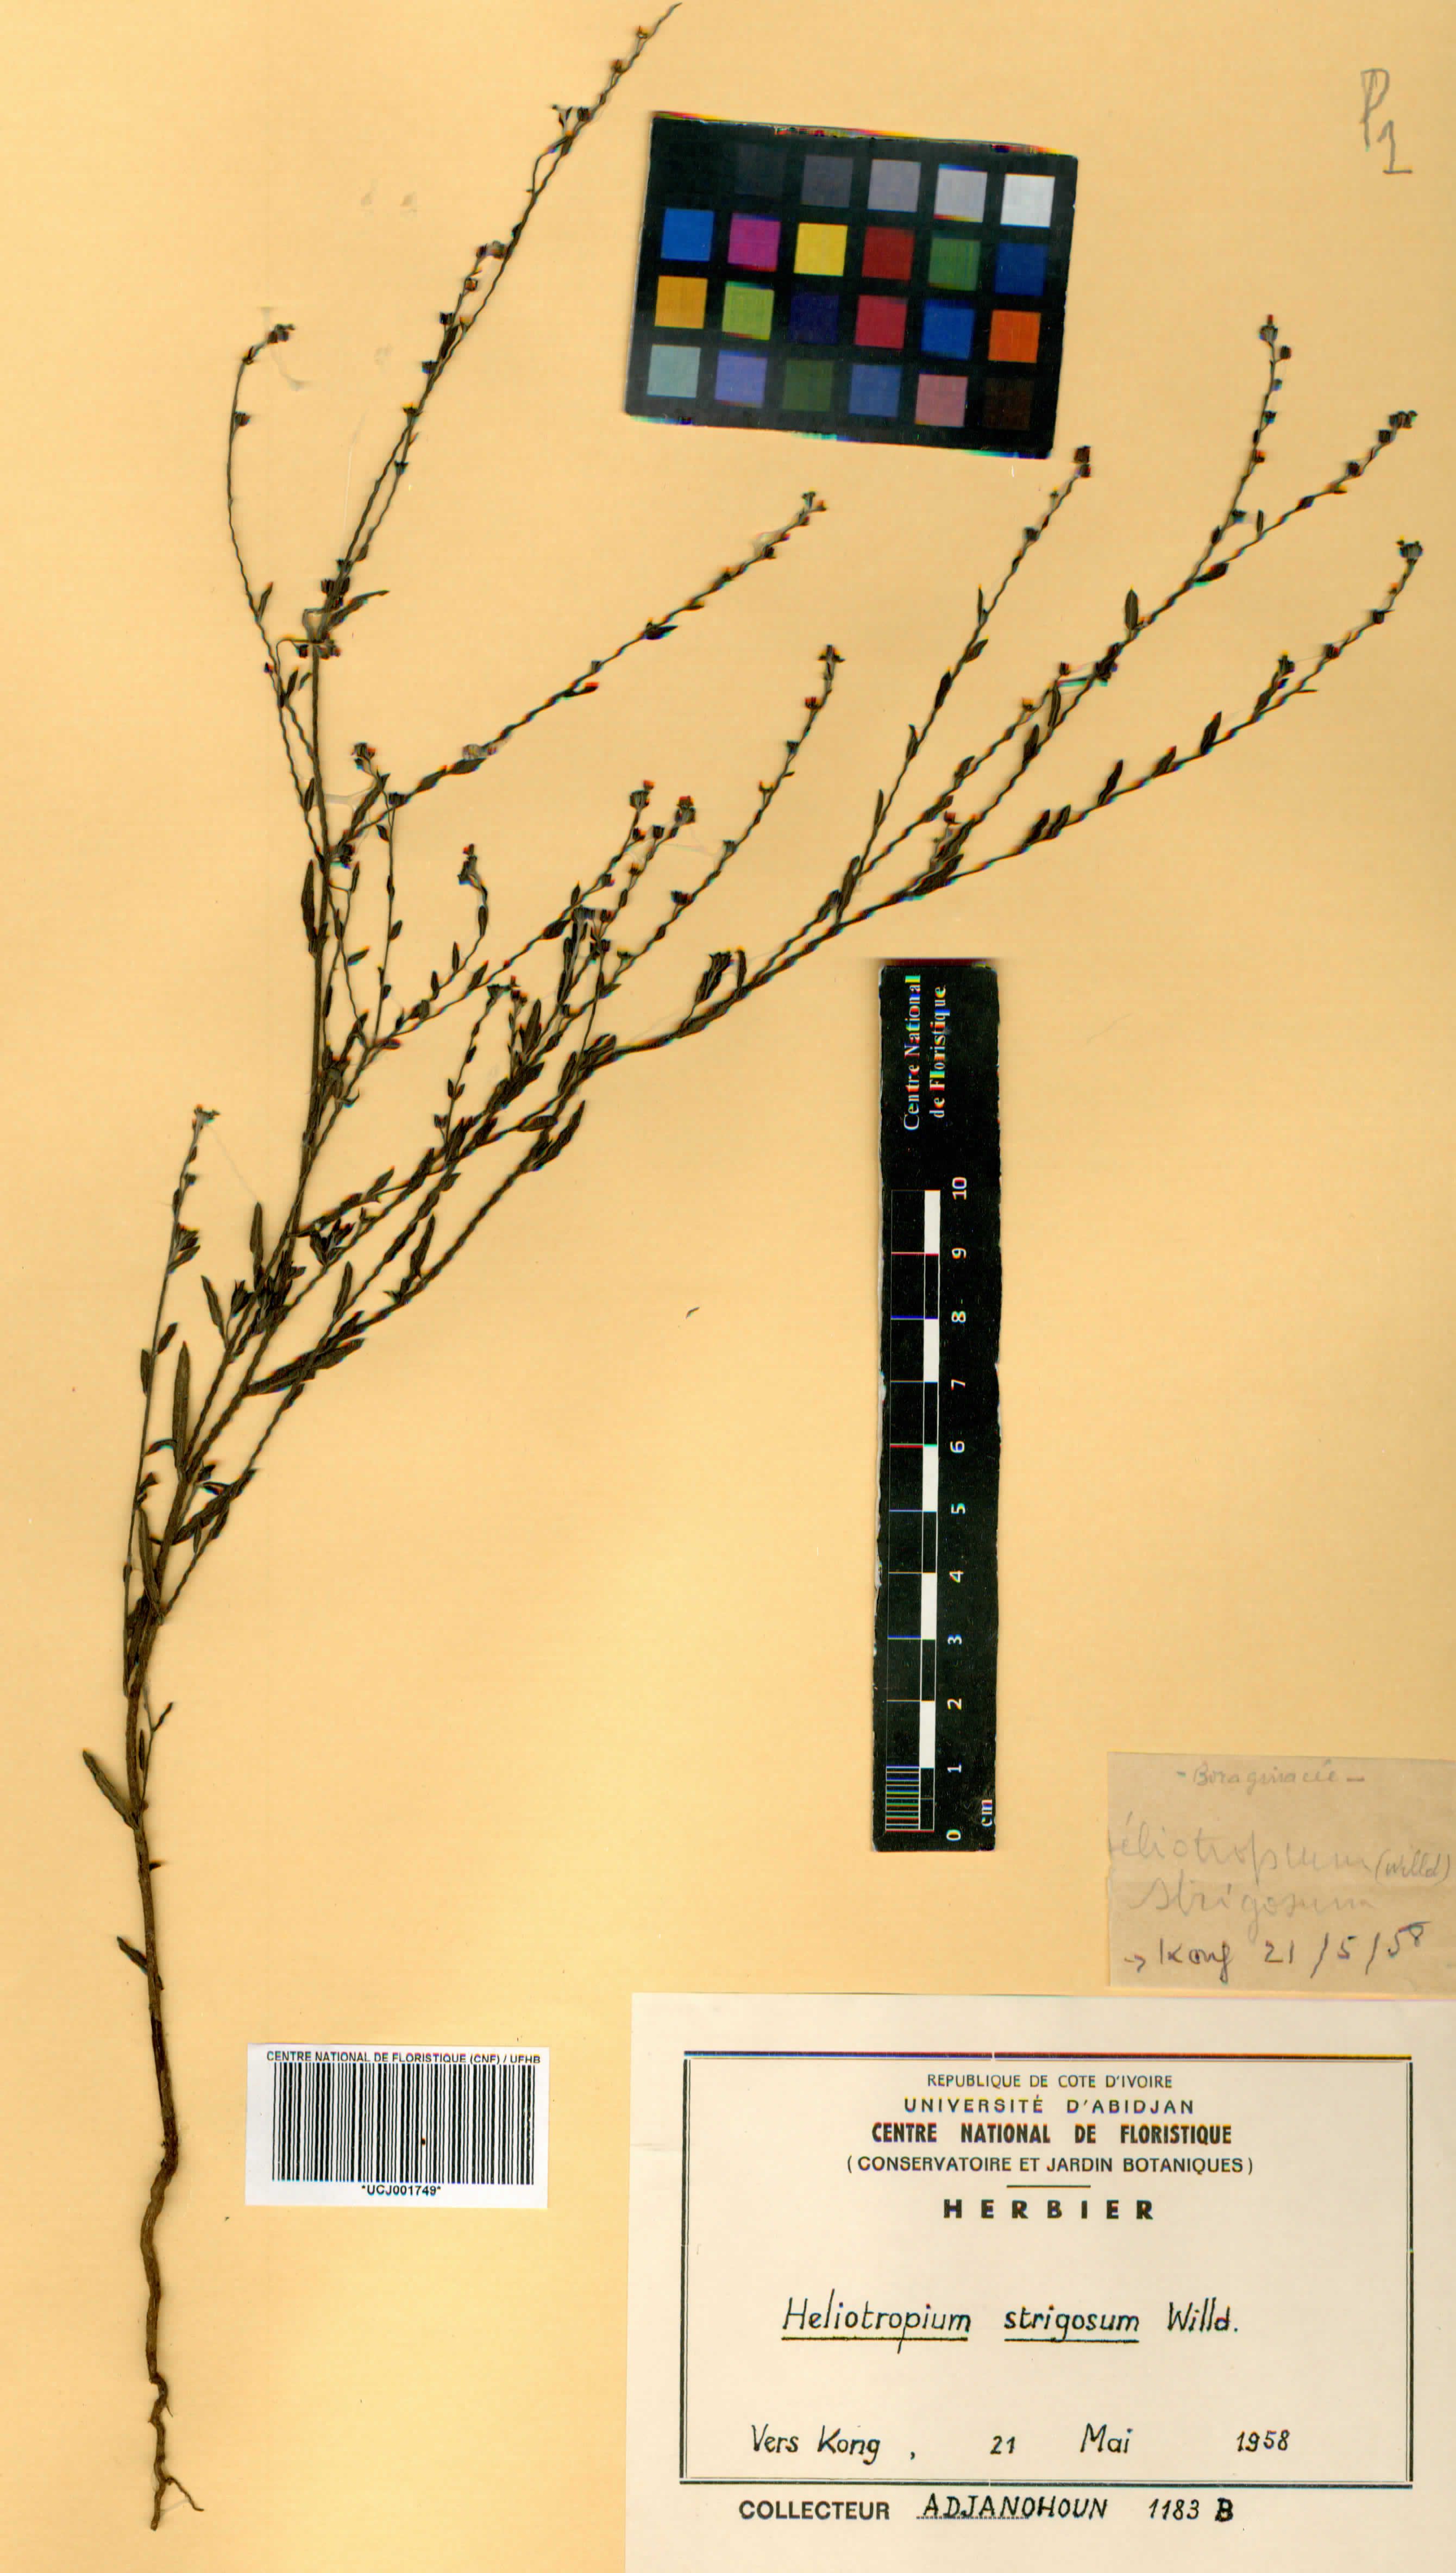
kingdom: Plantae
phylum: Tracheophyta
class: Magnoliopsida
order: Boraginales
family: Heliotropiaceae
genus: Euploca
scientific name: Euploca strigosa
